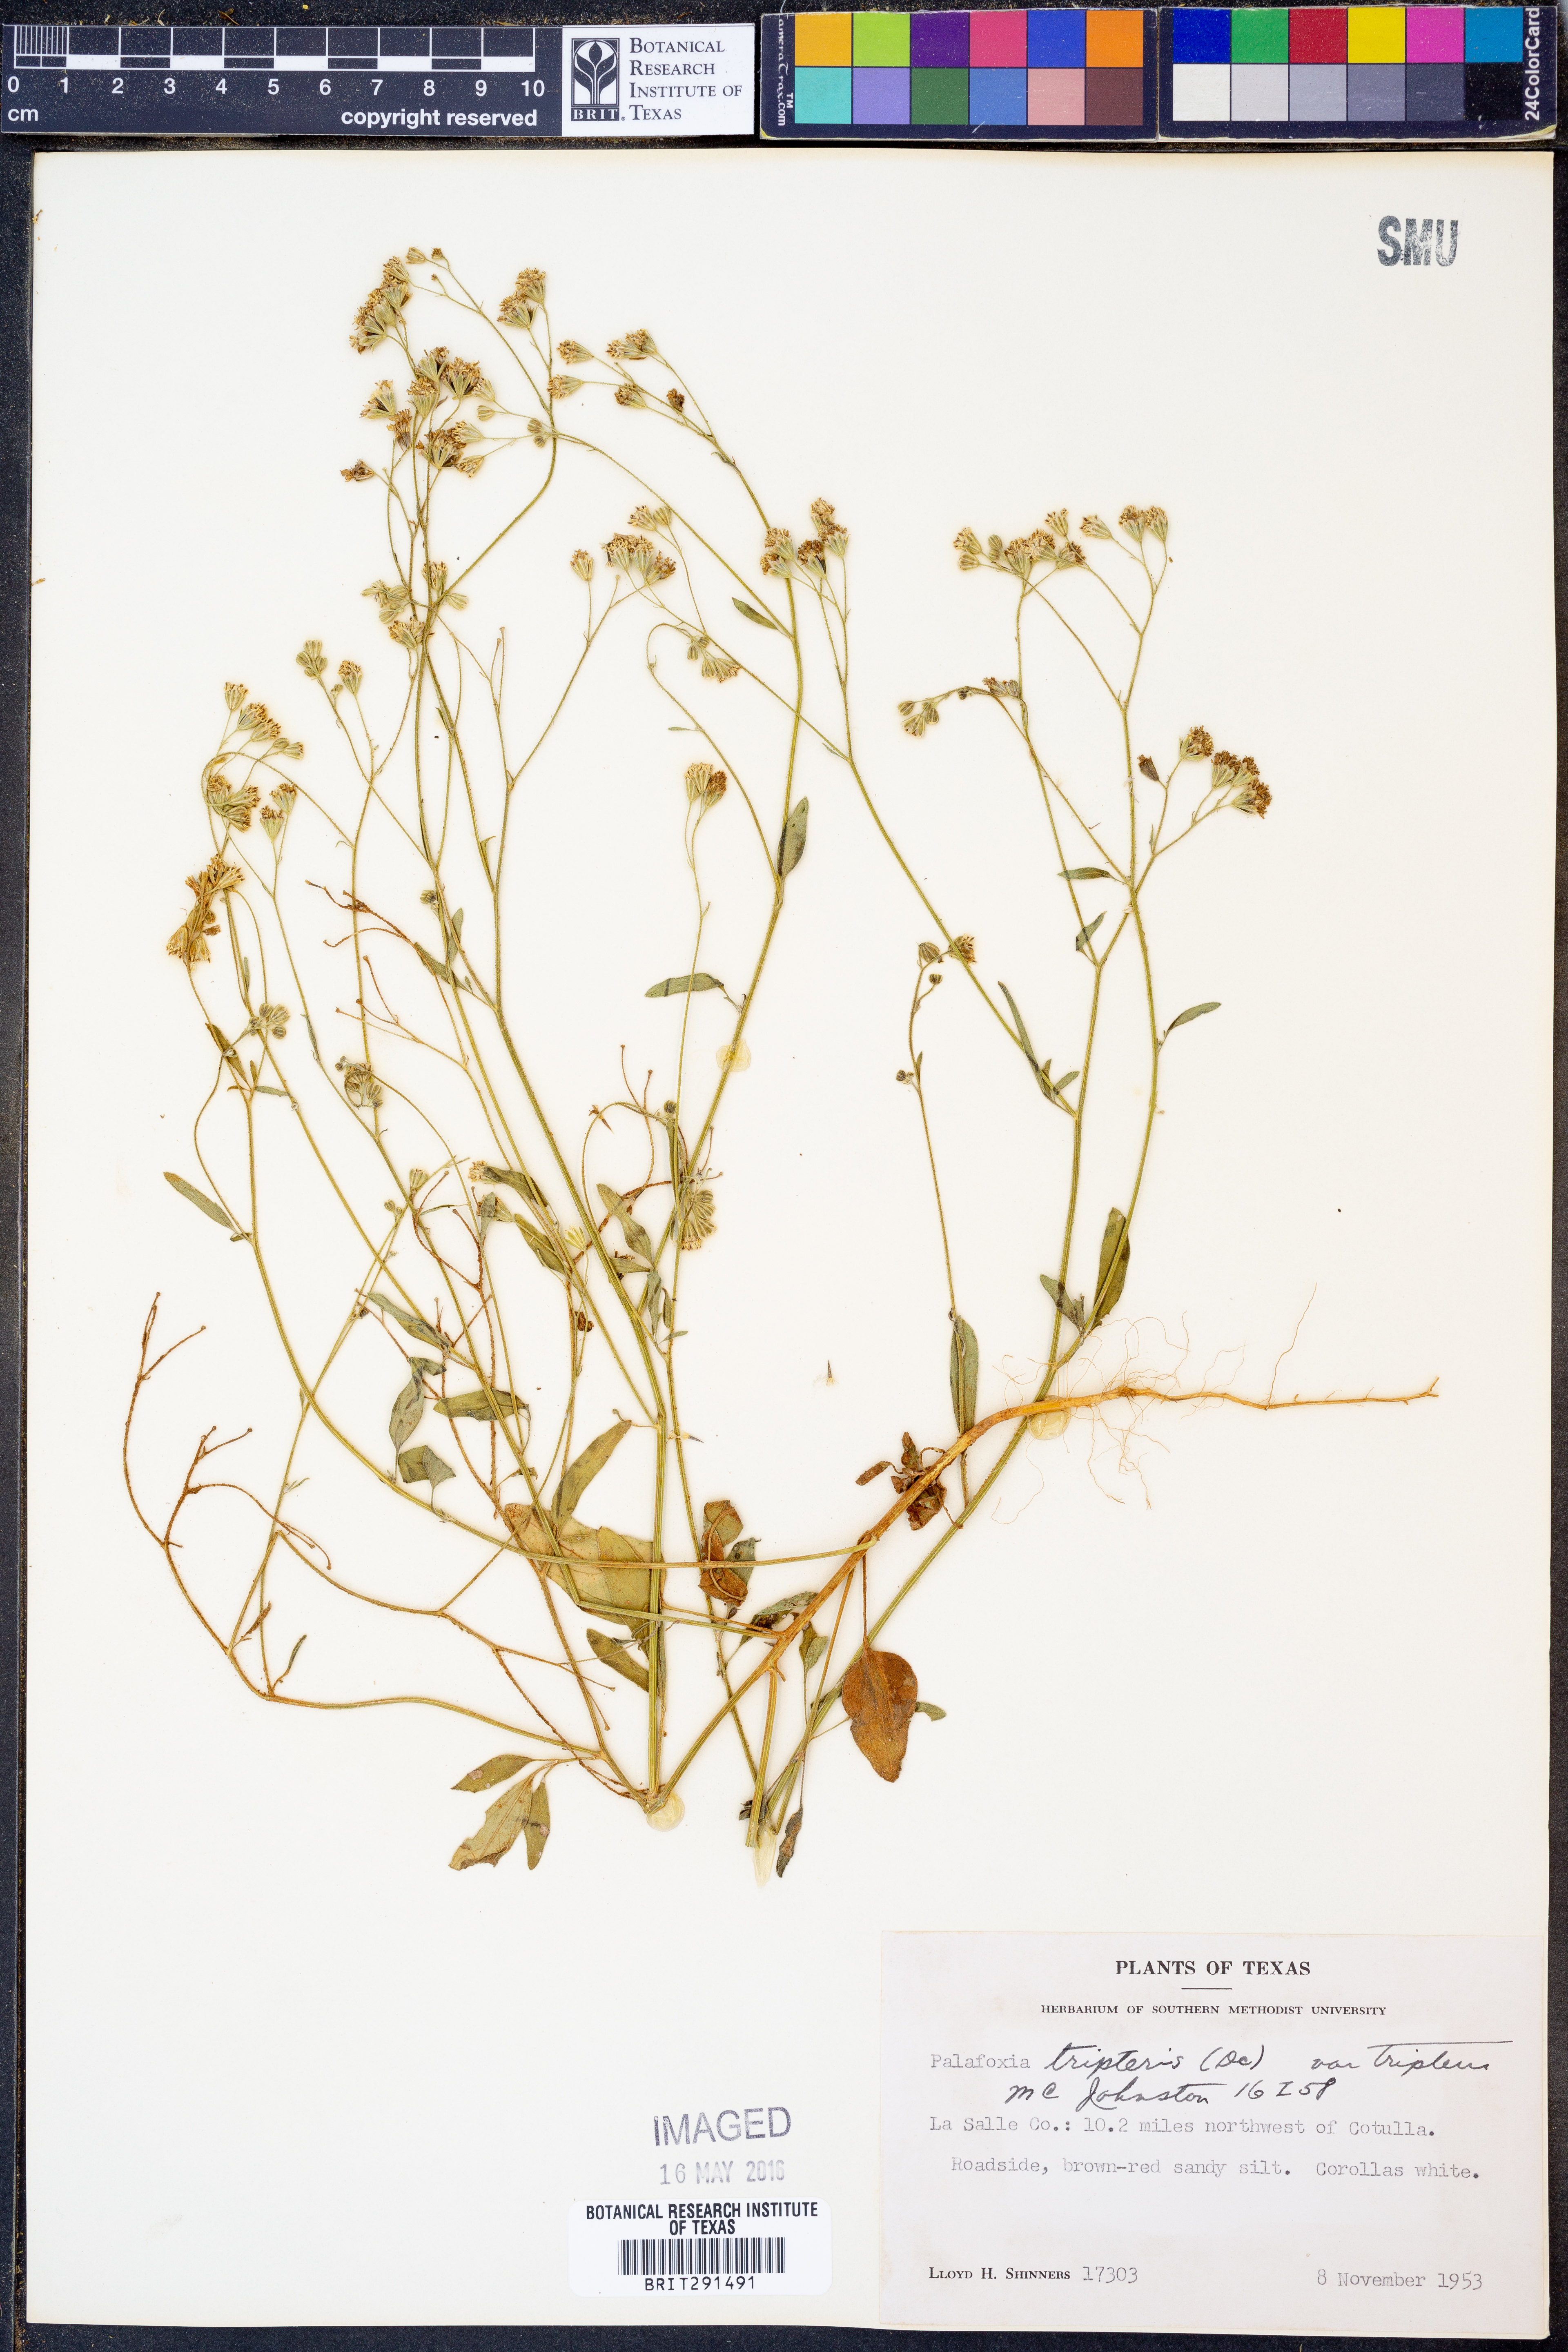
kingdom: Plantae
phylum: Tracheophyta
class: Magnoliopsida
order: Asterales
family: Asteraceae
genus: Florestina
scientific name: Florestina tripteris
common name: Sticky florestina
